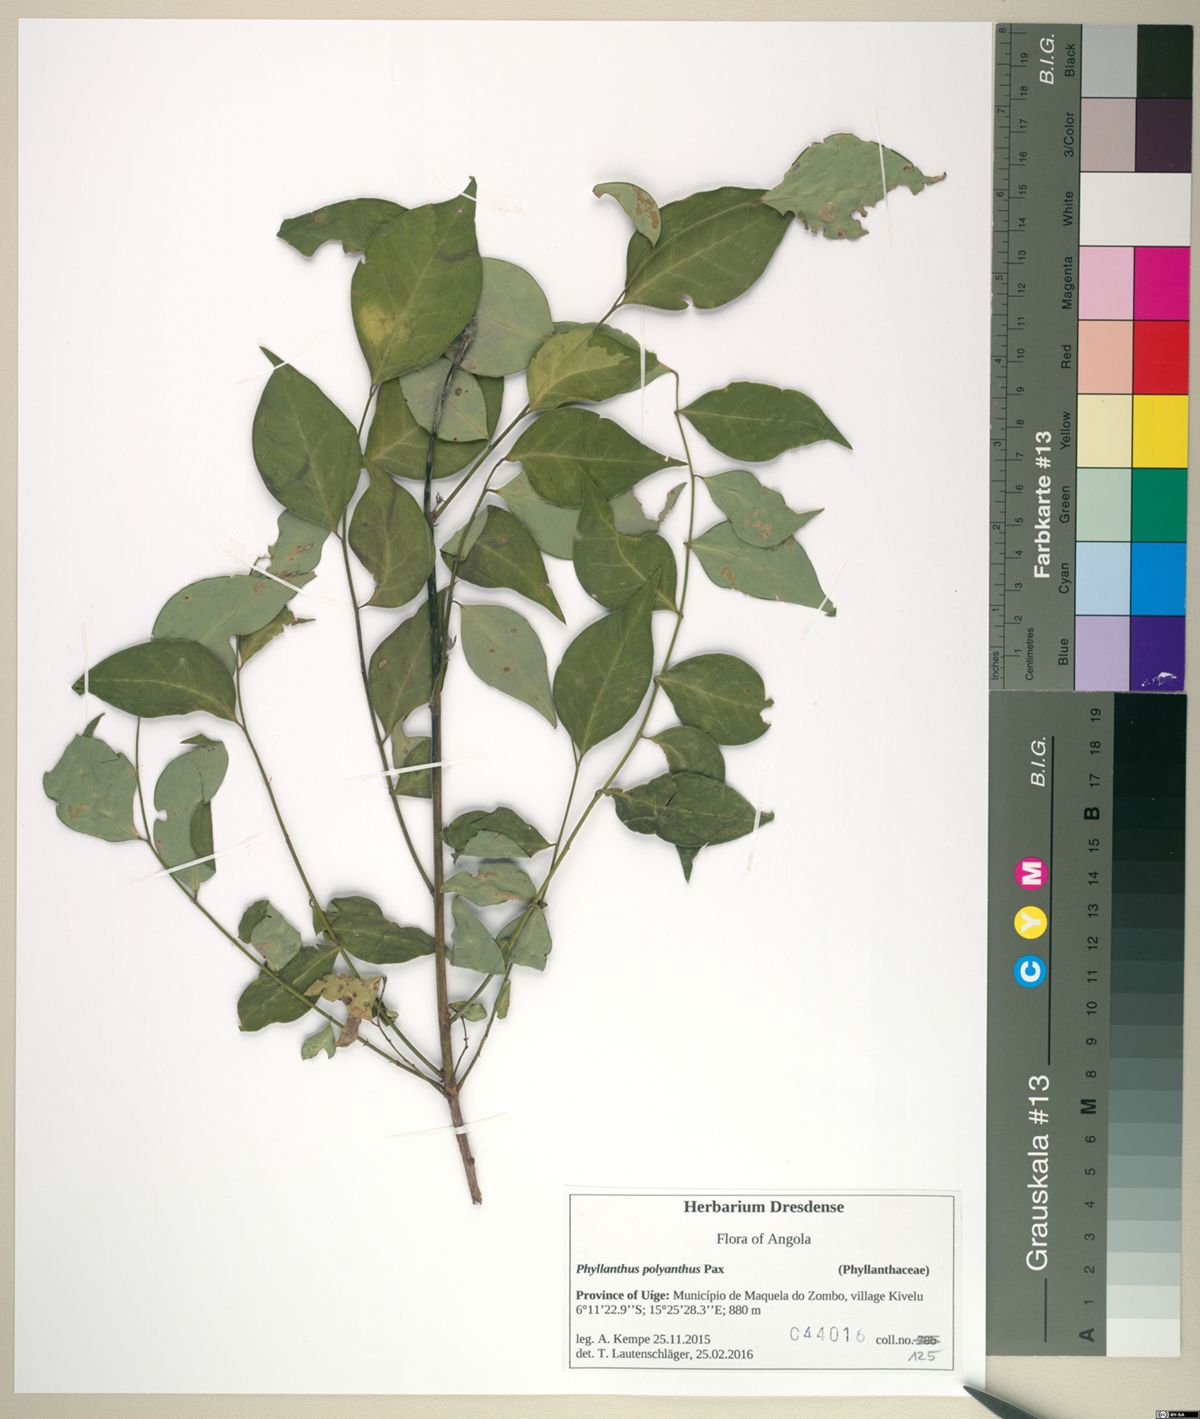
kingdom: Plantae
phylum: Tracheophyta
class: Magnoliopsida
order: Malpighiales
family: Phyllanthaceae
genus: Phyllanthus
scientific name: Phyllanthus physocarpus
